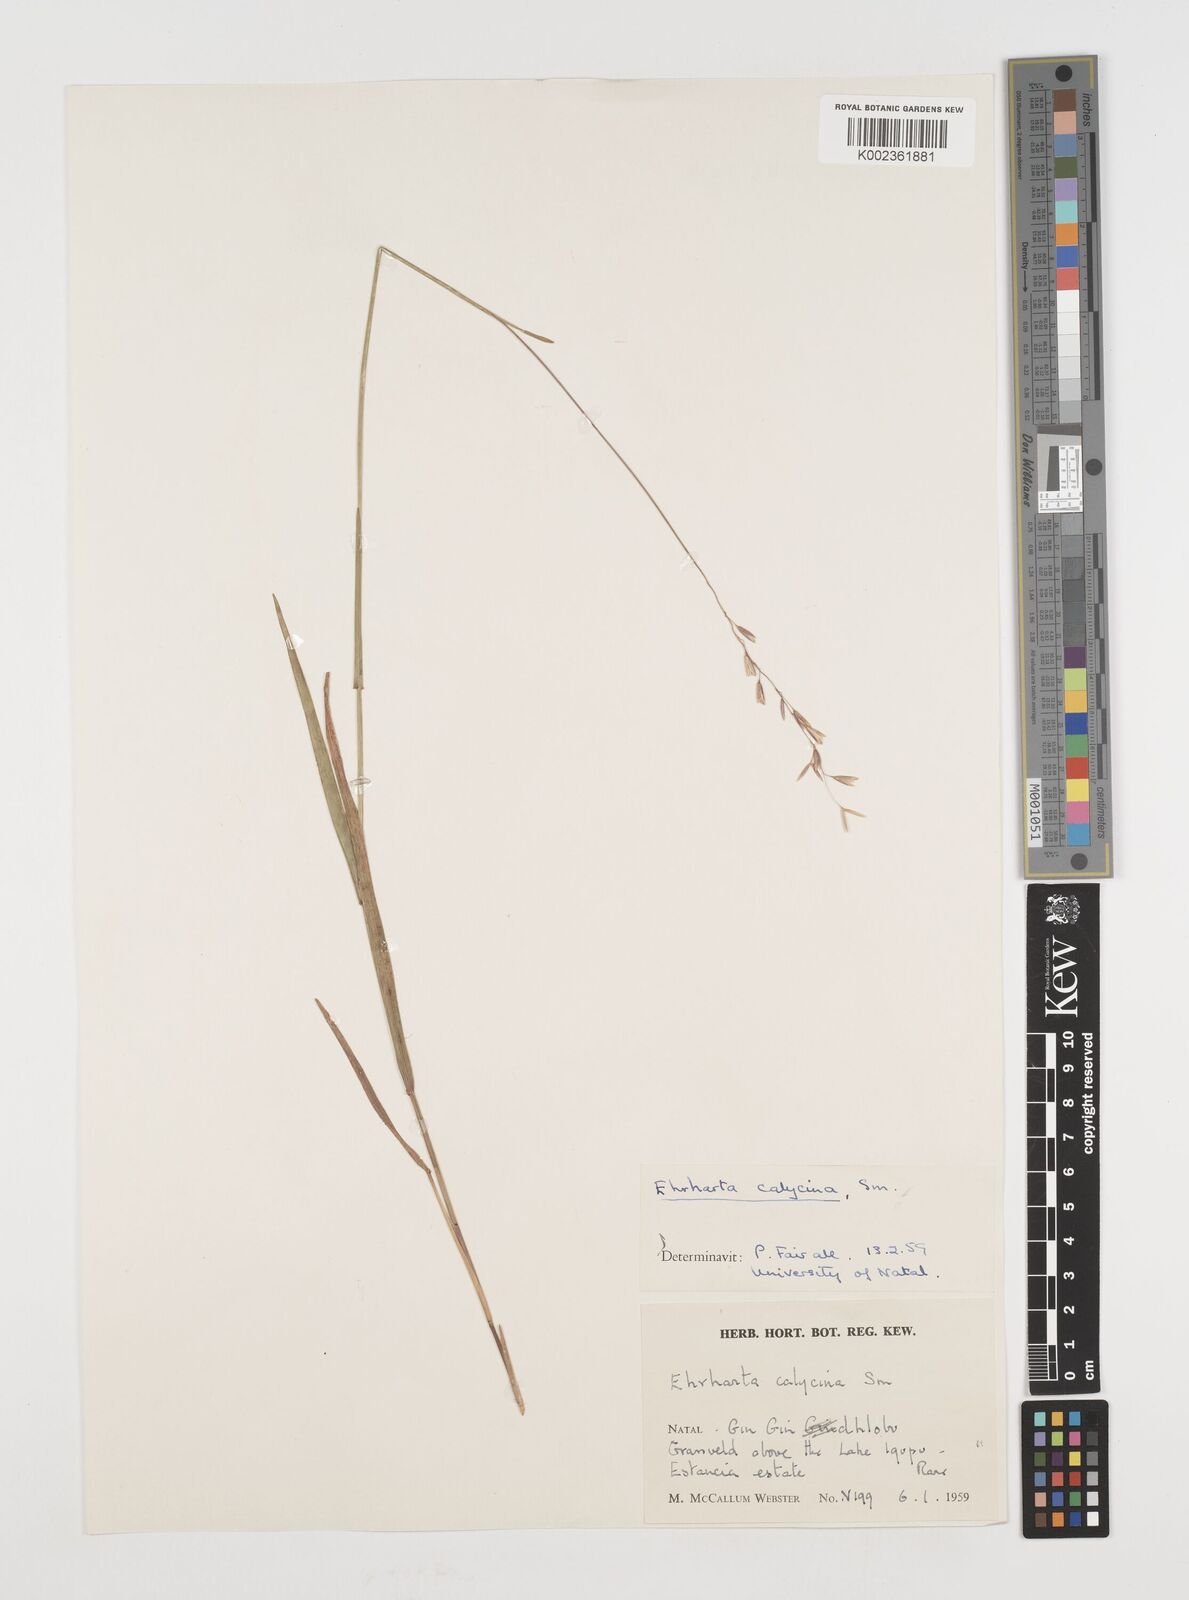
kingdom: Plantae
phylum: Tracheophyta
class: Liliopsida
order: Poales
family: Poaceae
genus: Ehrharta
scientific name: Ehrharta
